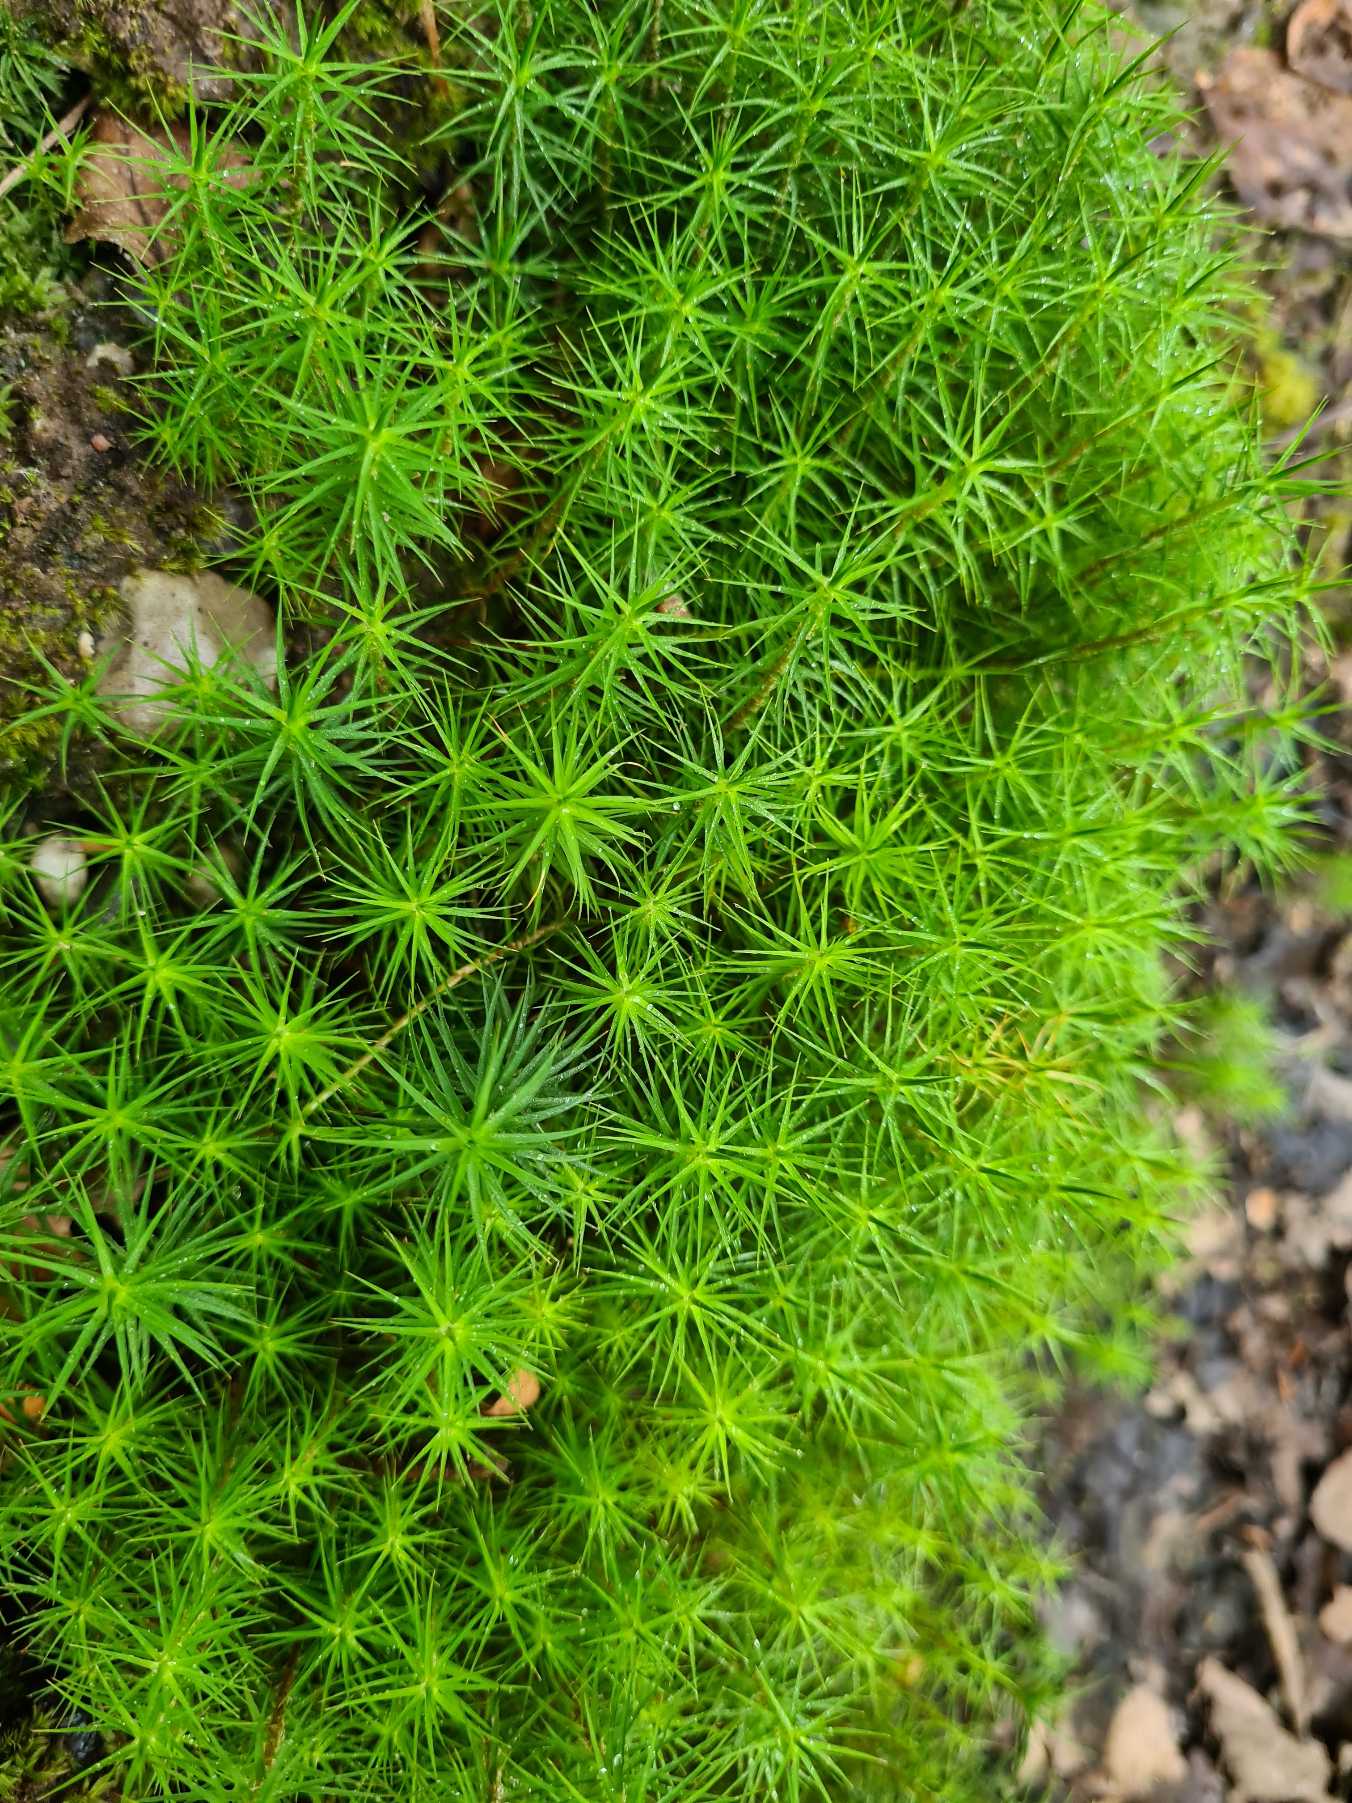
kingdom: Plantae
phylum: Bryophyta
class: Polytrichopsida
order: Polytrichales
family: Polytrichaceae
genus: Polytrichum
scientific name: Polytrichum commune
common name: Almindelig jomfruhår
